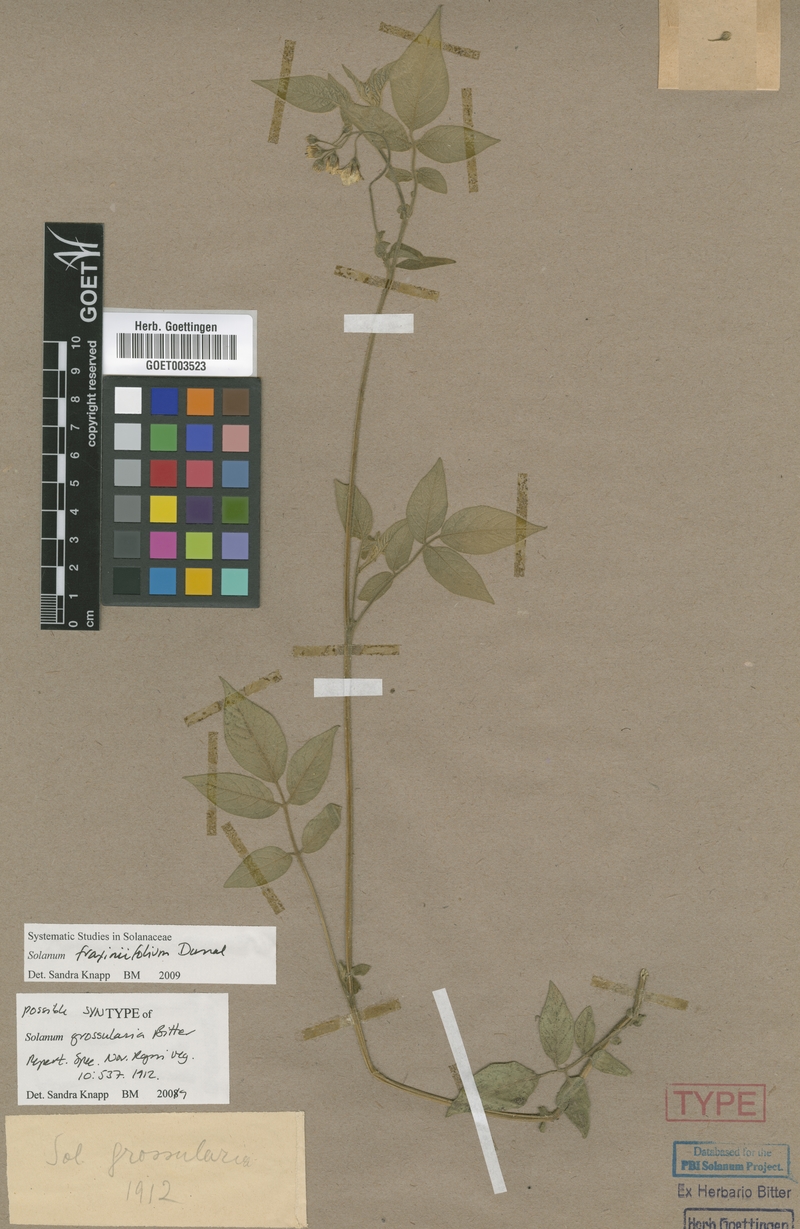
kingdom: Plantae
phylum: Tracheophyta
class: Magnoliopsida
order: Solanales
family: Solanaceae
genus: Solanum
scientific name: Solanum fraxinifolium
